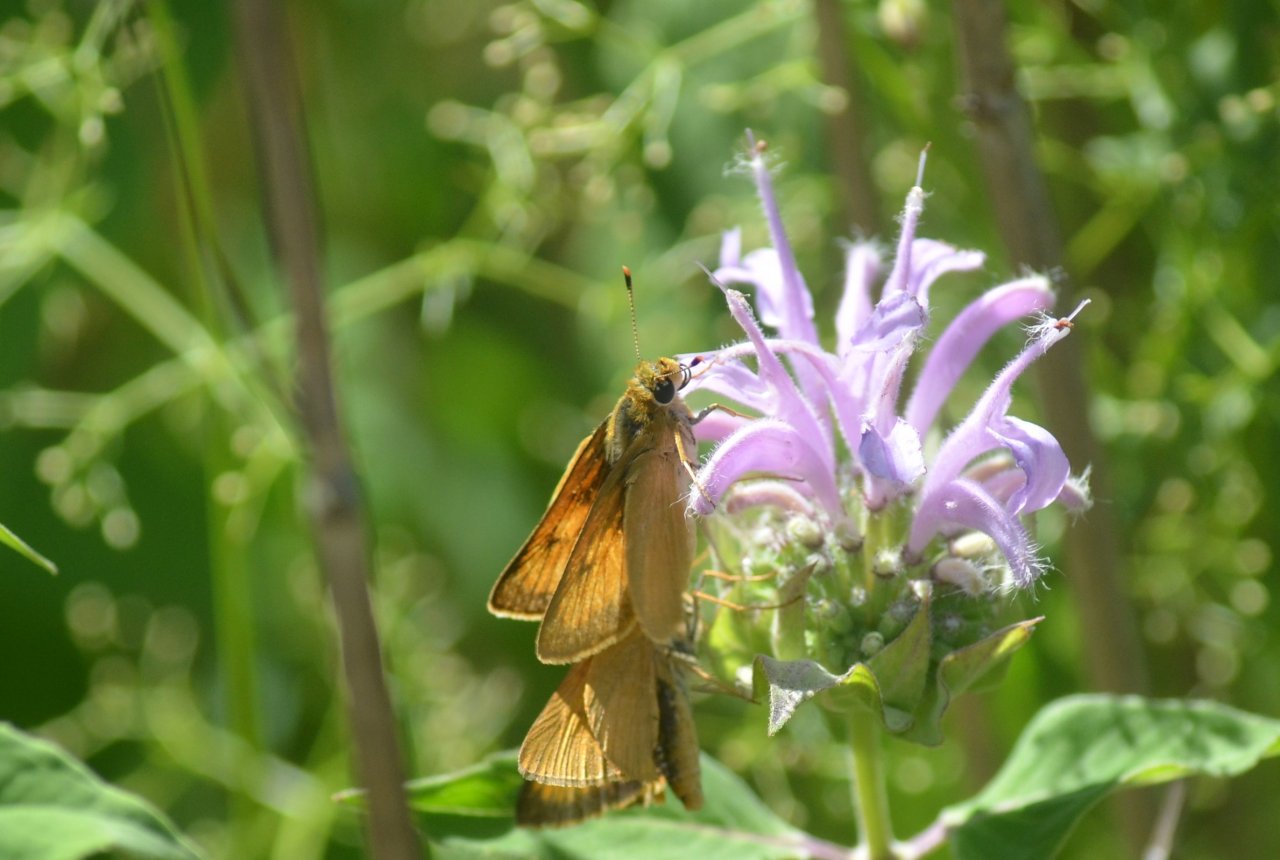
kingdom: Animalia
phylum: Arthropoda
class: Insecta
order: Lepidoptera
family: Hesperiidae
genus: Atrytone
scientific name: Atrytone delaware
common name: Delaware Skipper
